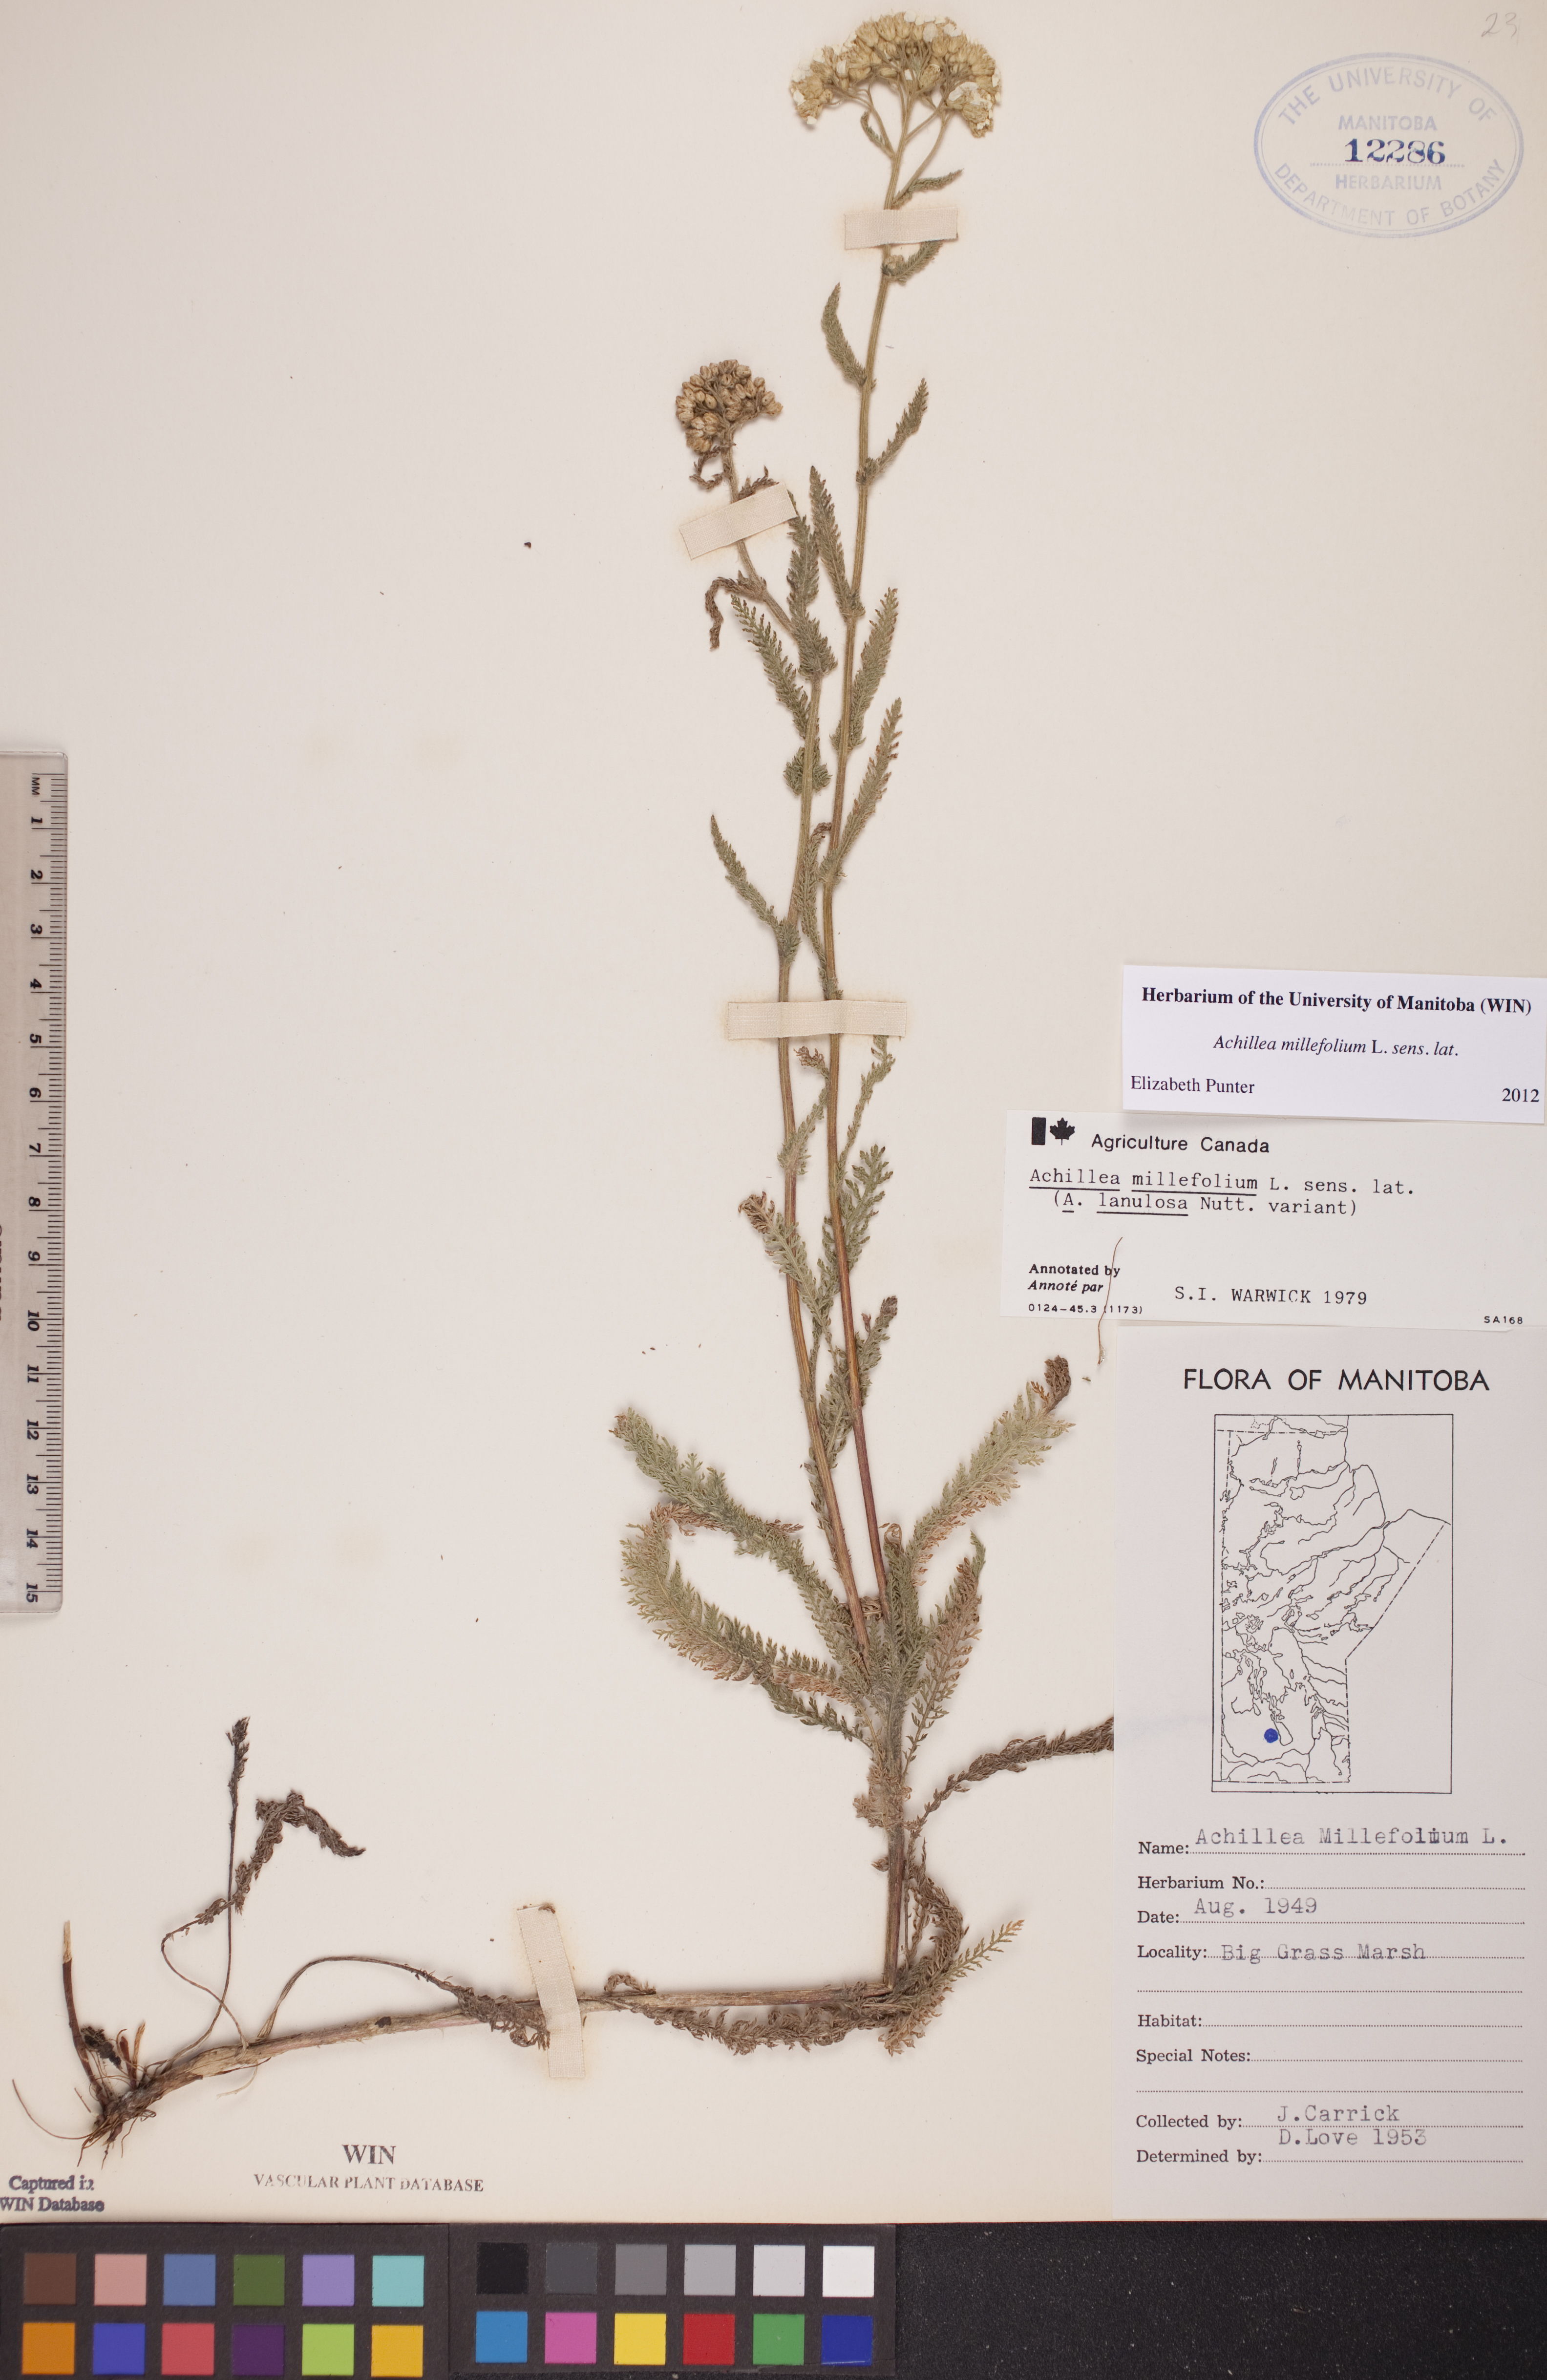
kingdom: Plantae
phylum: Tracheophyta
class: Magnoliopsida
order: Asterales
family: Asteraceae
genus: Achillea
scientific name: Achillea millefolium
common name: Yarrow
